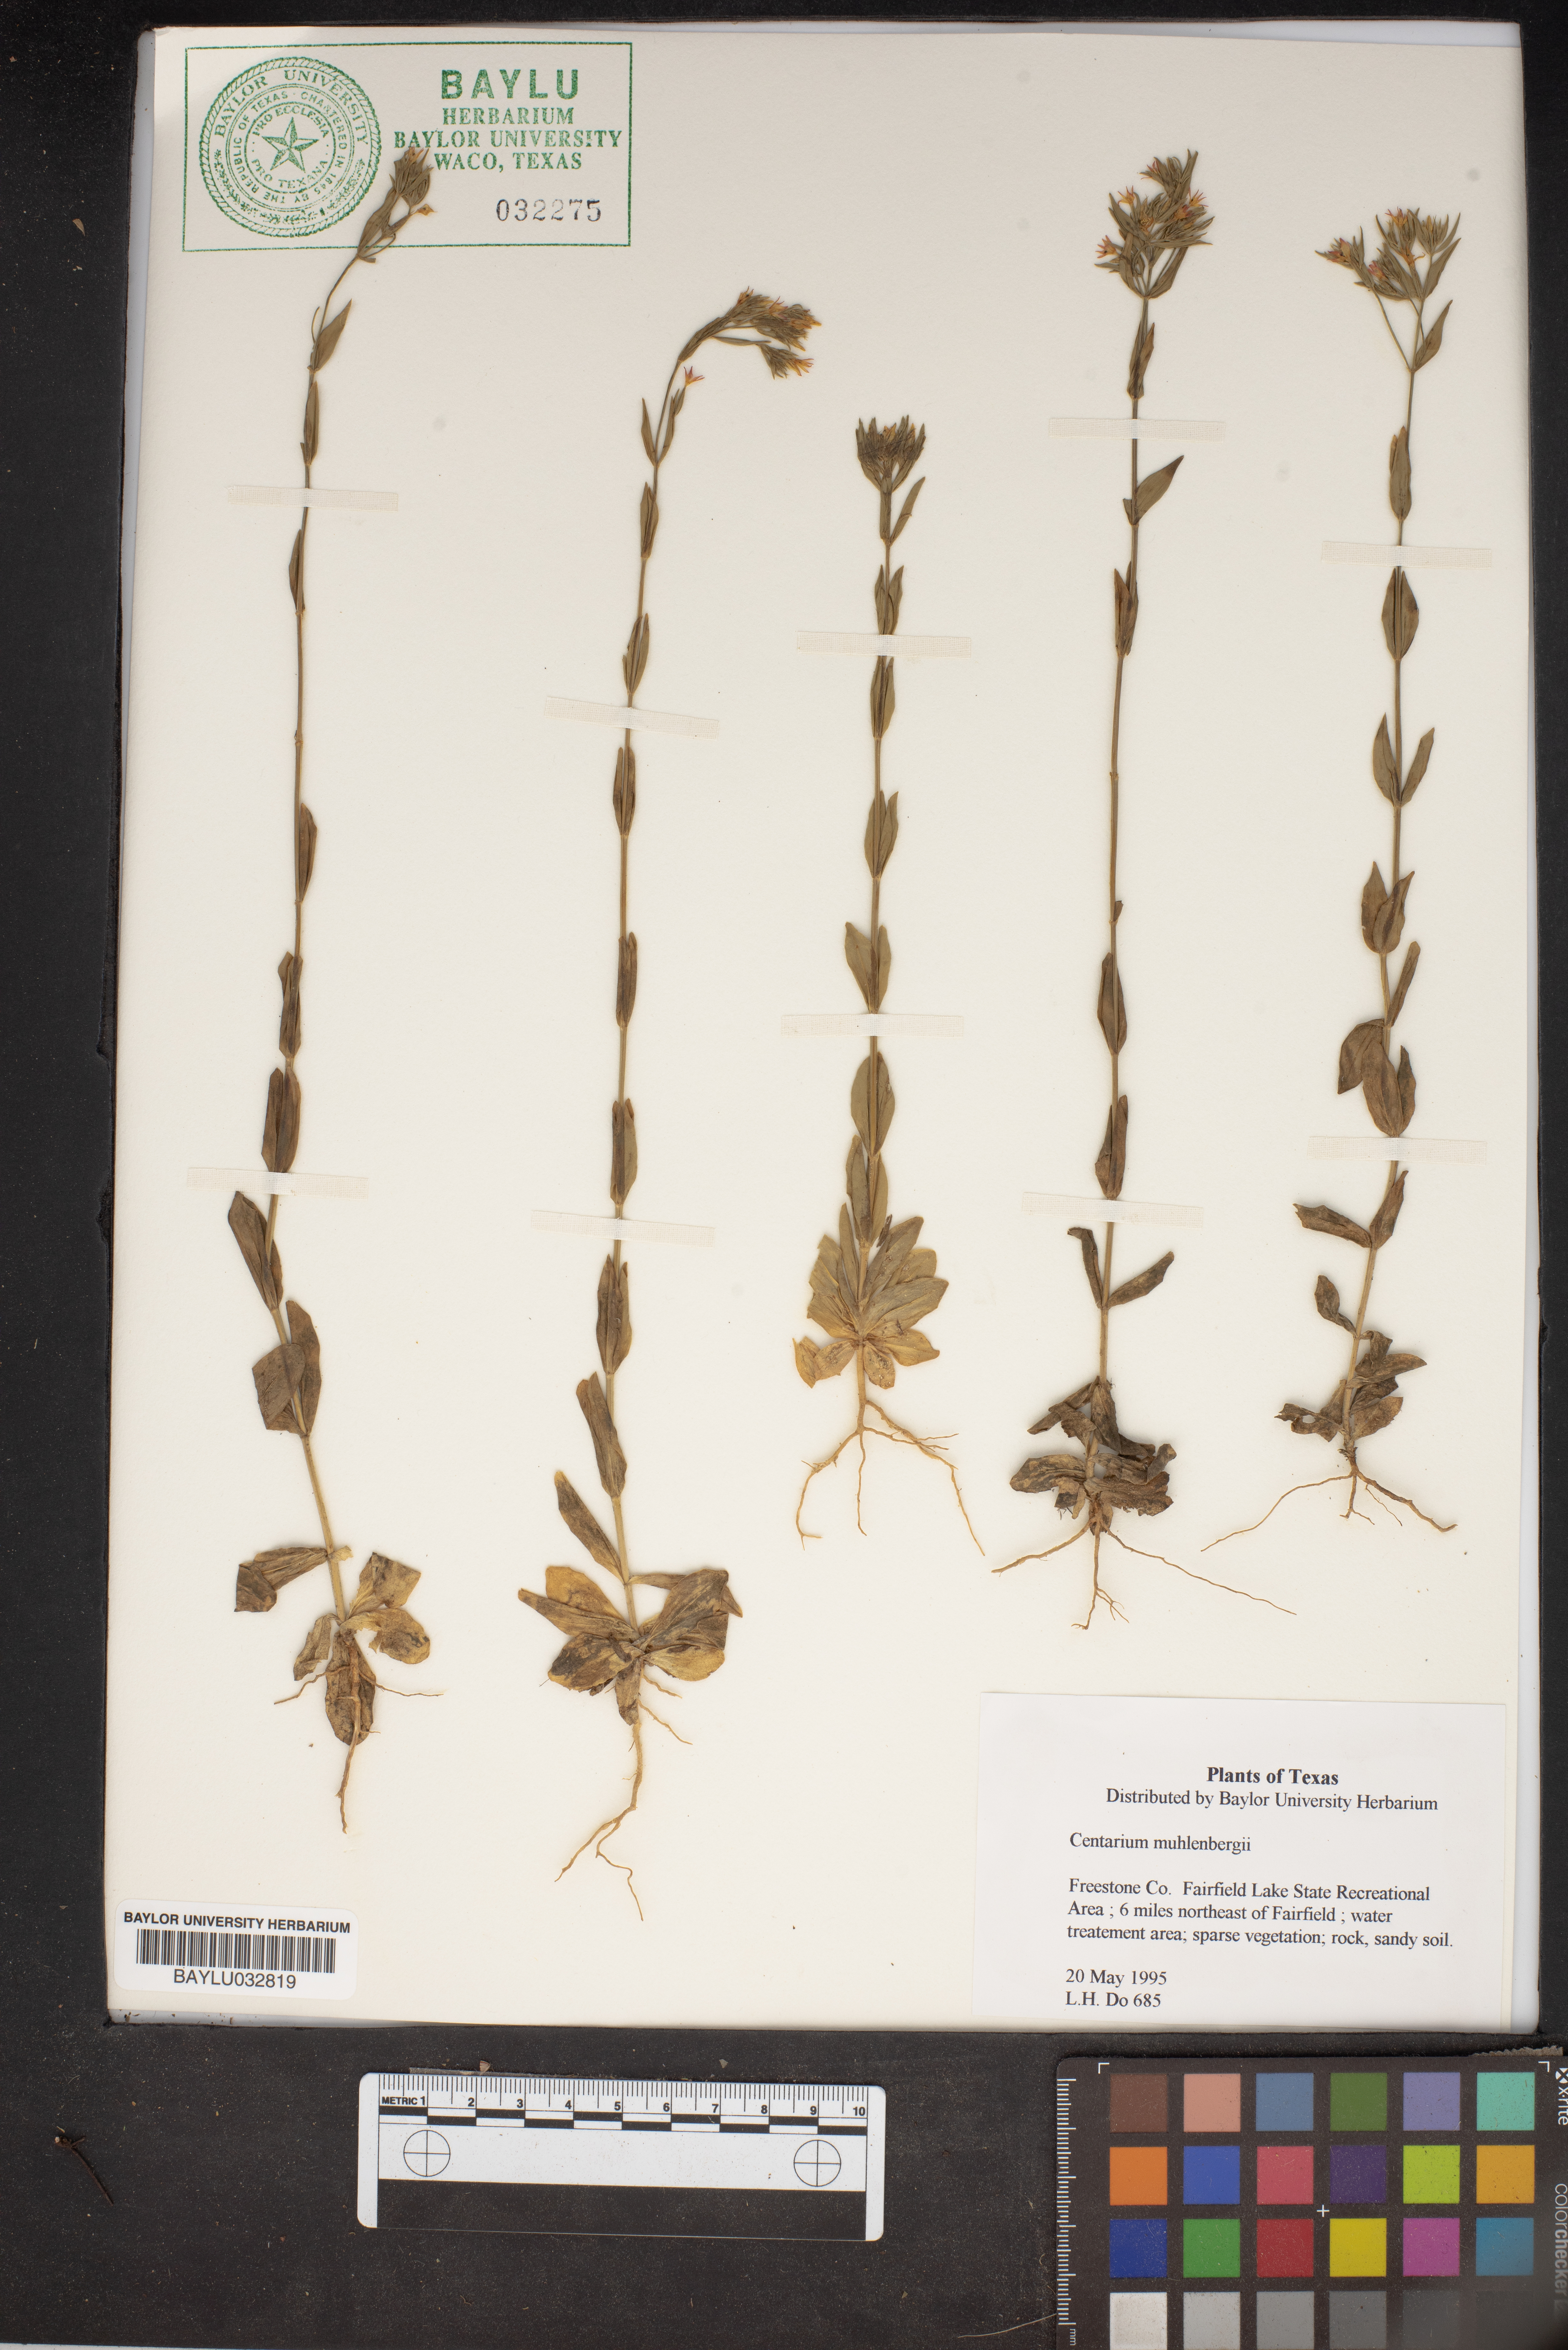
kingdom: Plantae
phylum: Tracheophyta
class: Magnoliopsida
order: Gentianales
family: Gentianaceae
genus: Zeltnera
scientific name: Zeltnera muhlenbergii
